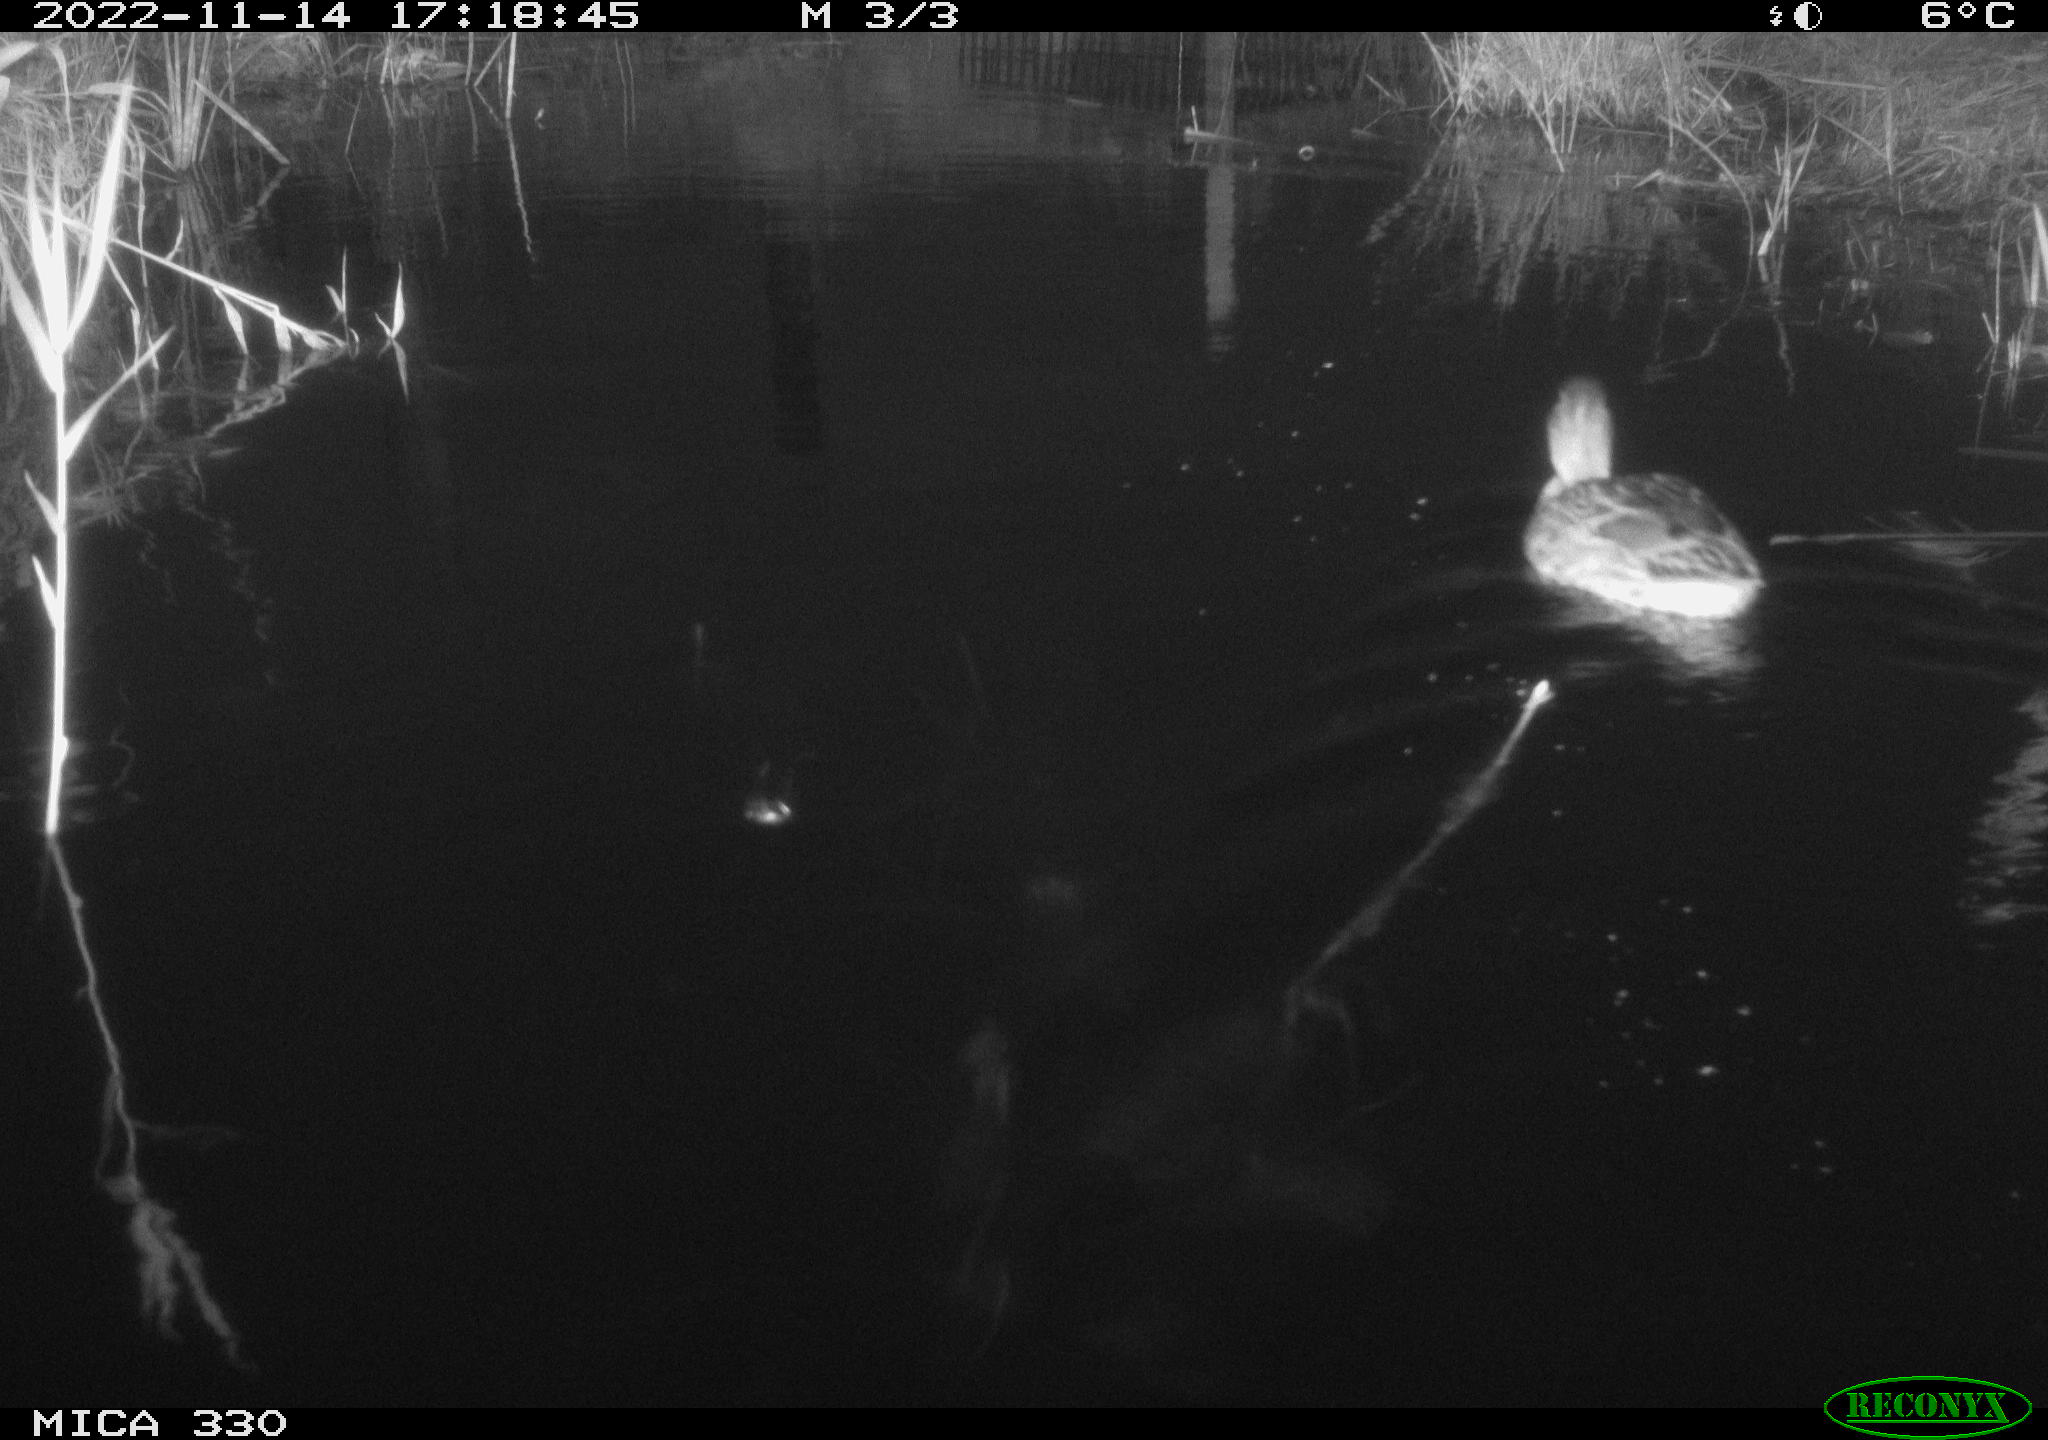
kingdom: Animalia
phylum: Chordata
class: Aves
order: Anseriformes
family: Anatidae
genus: Anas
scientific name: Anas platyrhynchos
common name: Mallard
